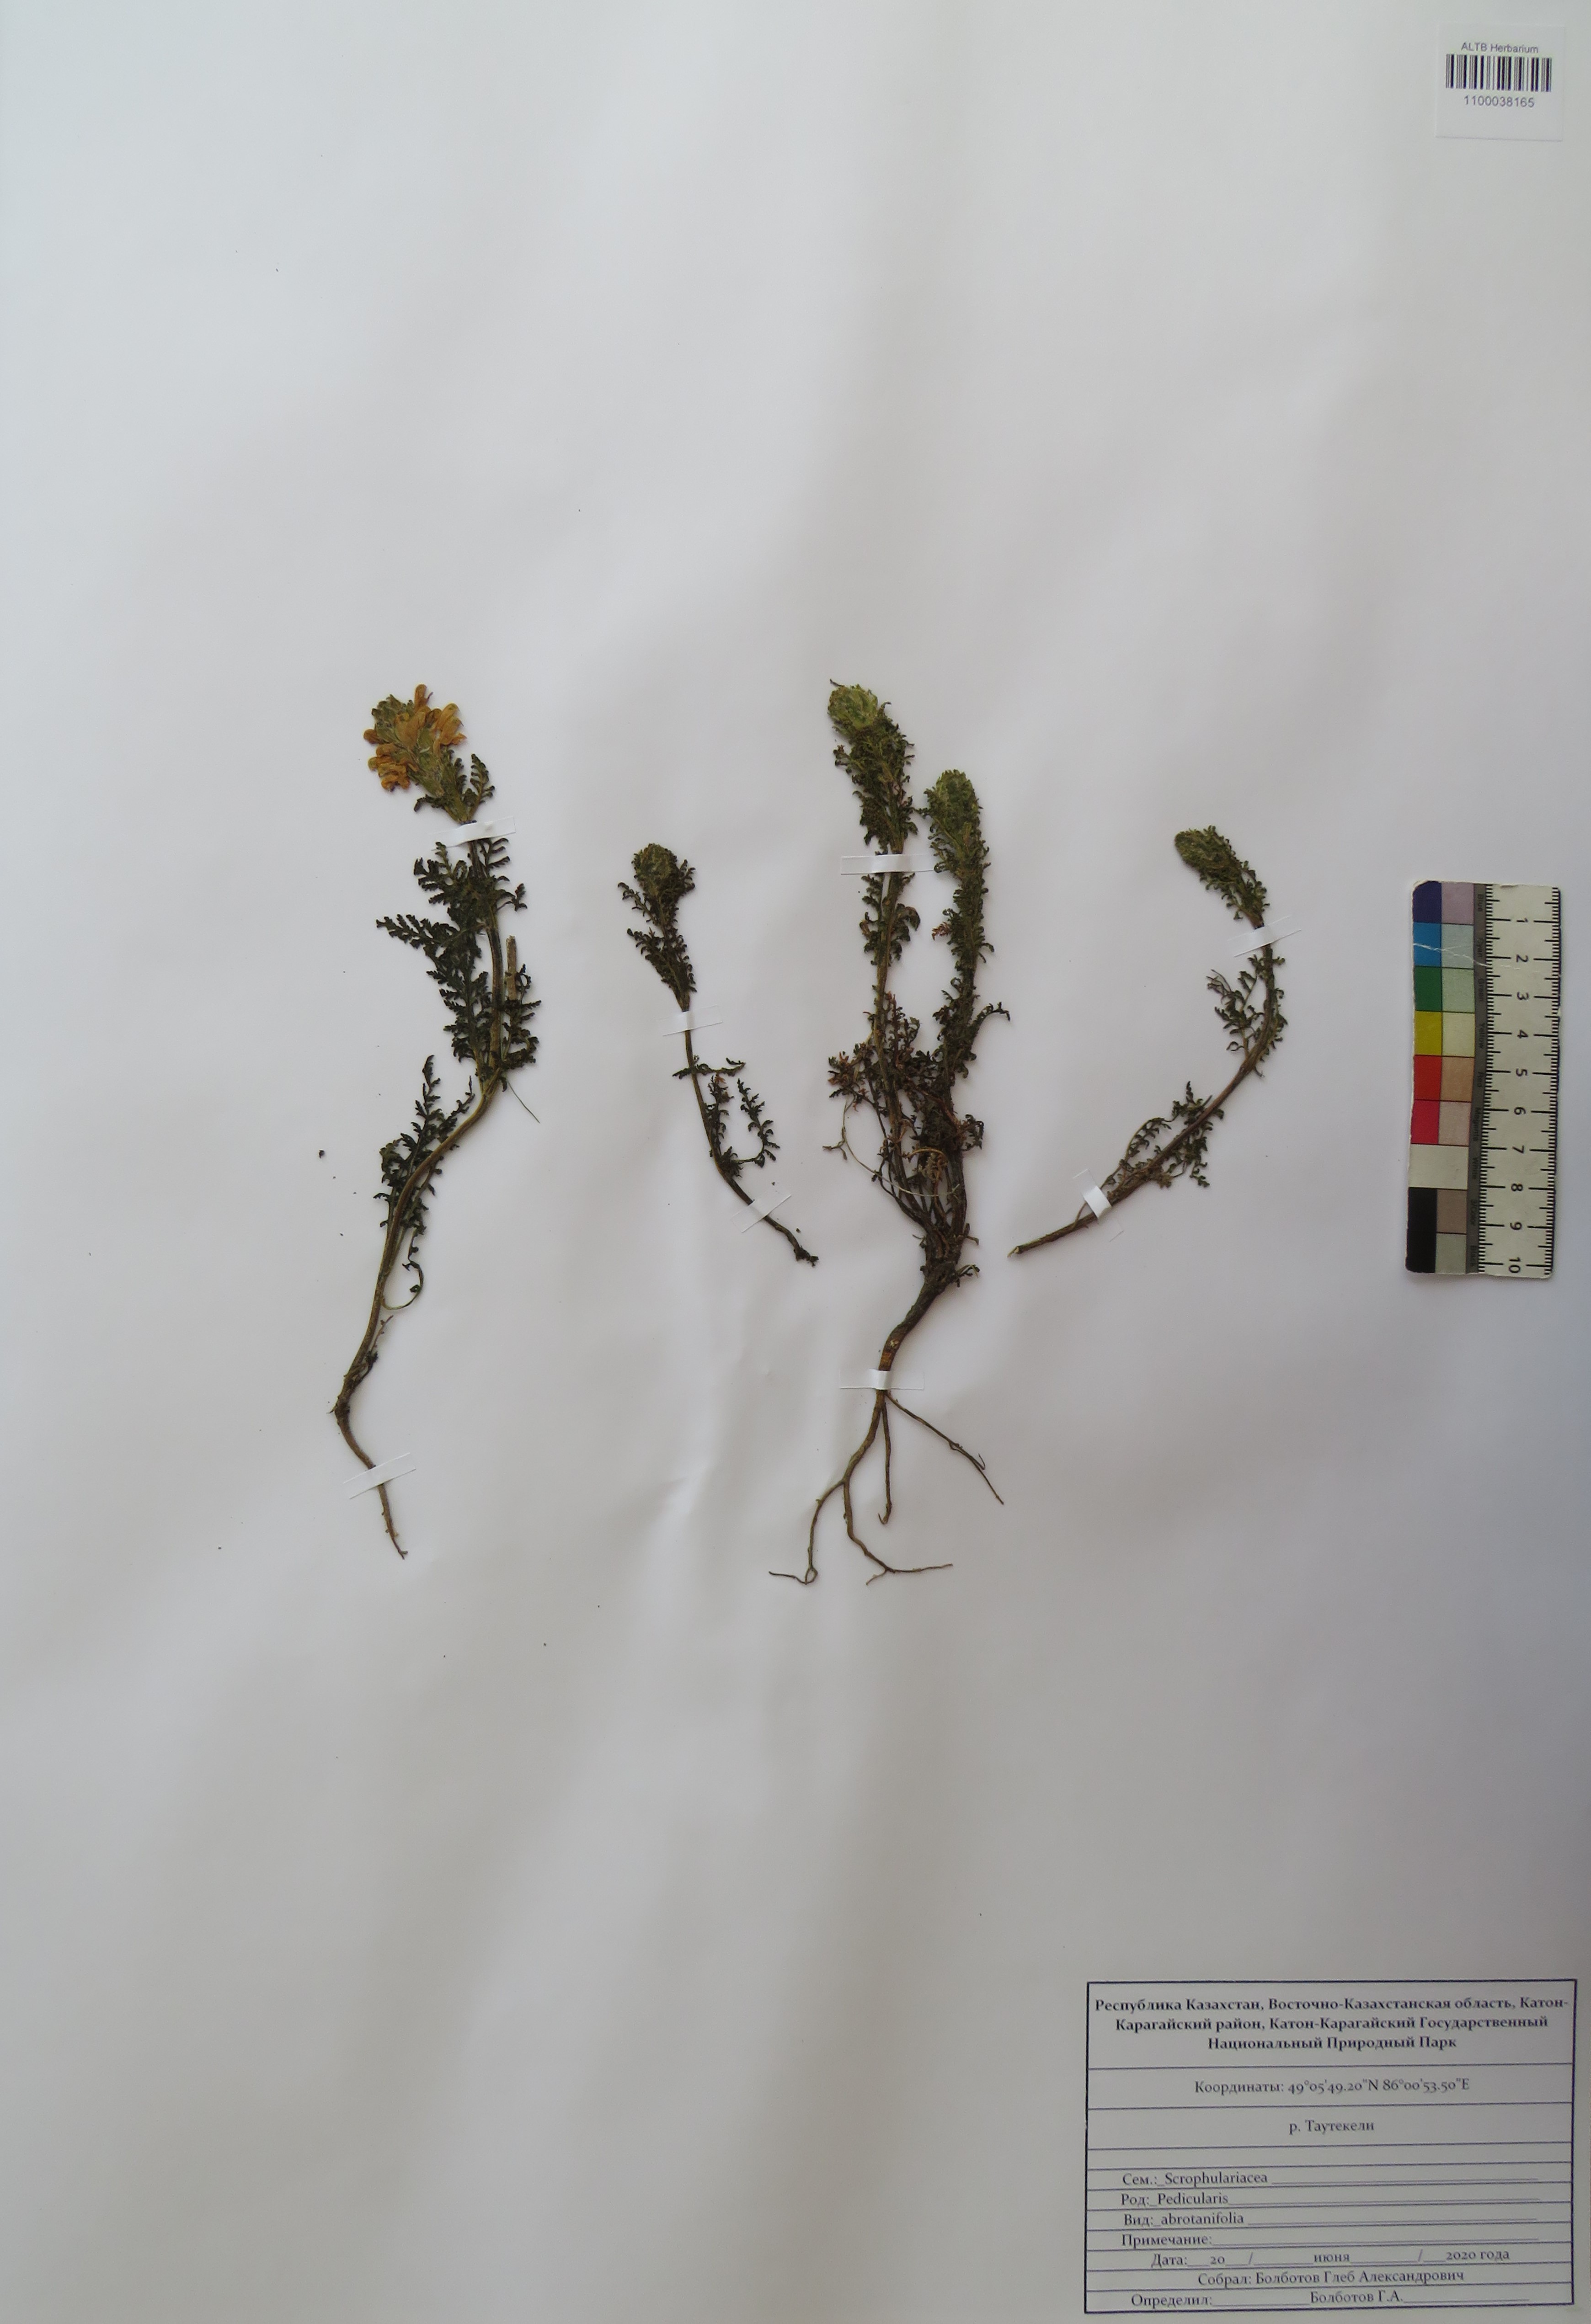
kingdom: Plantae
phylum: Tracheophyta
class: Magnoliopsida
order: Lamiales
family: Orobanchaceae
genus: Pedicularis
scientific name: Pedicularis abrotanifolia
